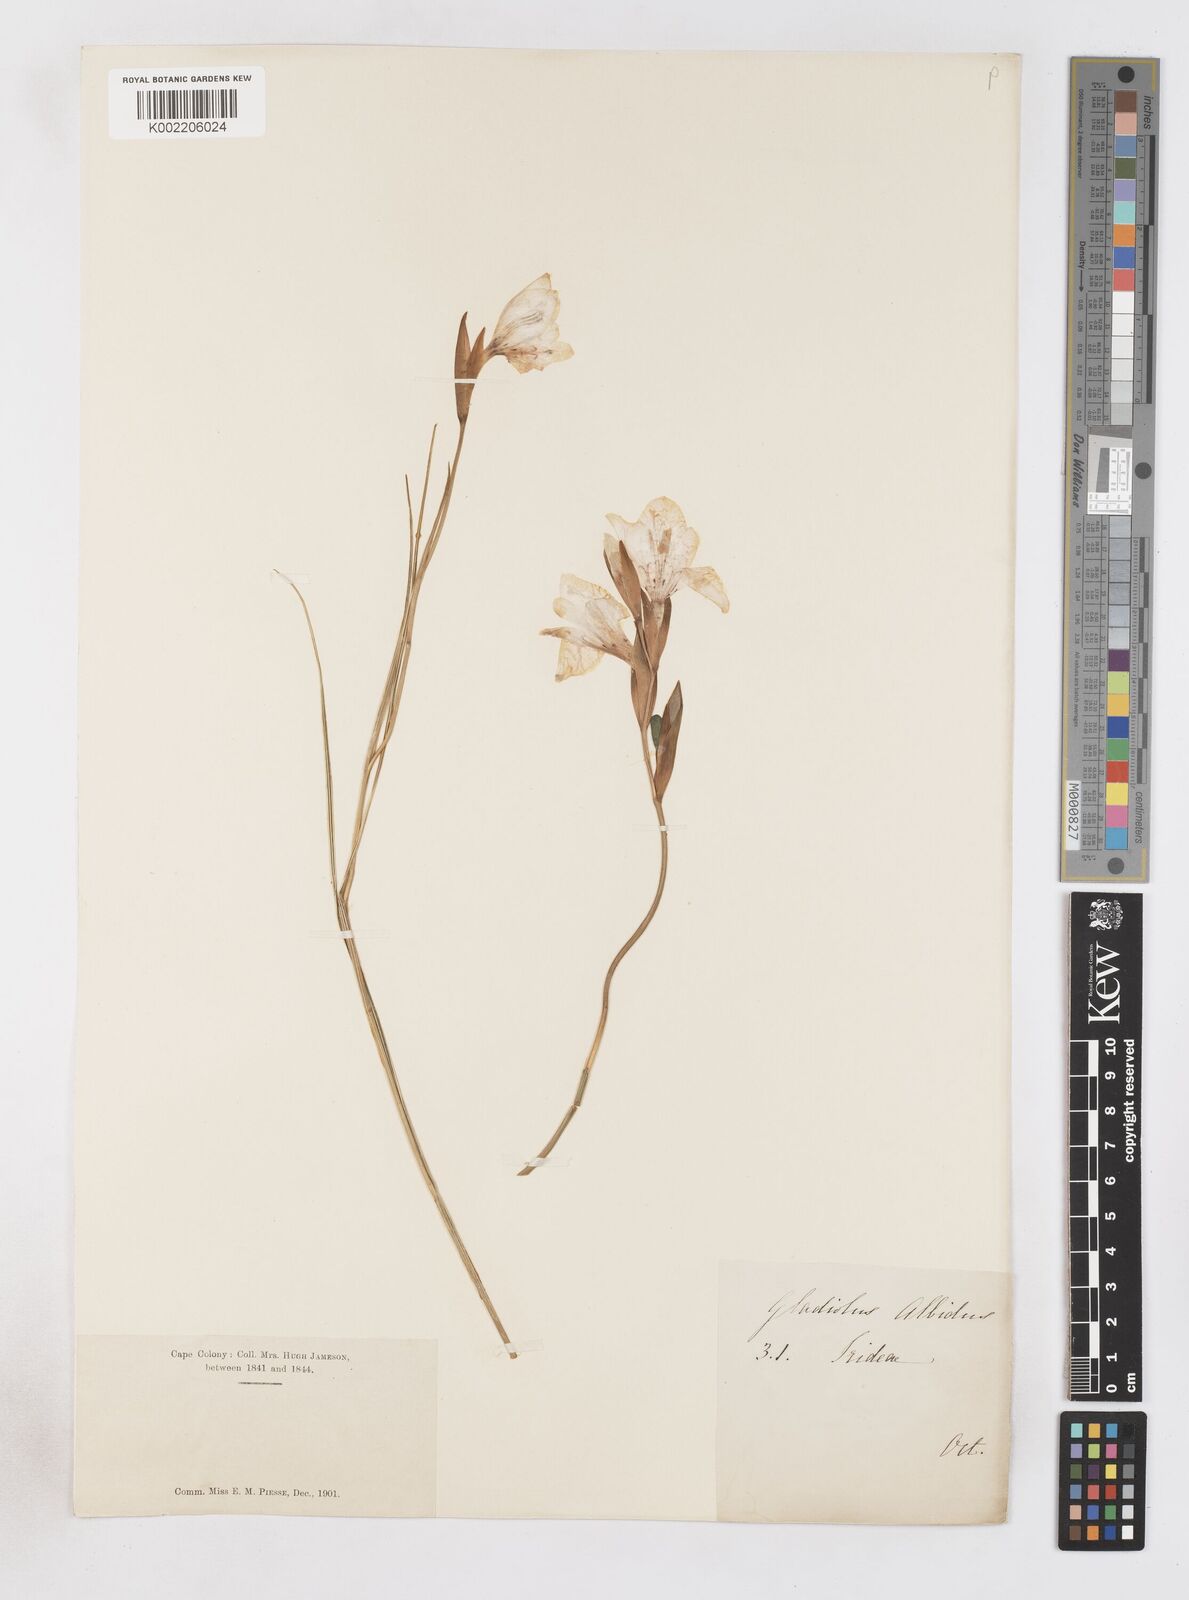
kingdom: Plantae
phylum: Tracheophyta
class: Liliopsida
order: Asparagales
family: Iridaceae
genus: Gladiolus
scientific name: Gladiolus debilis
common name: Painted-lady
